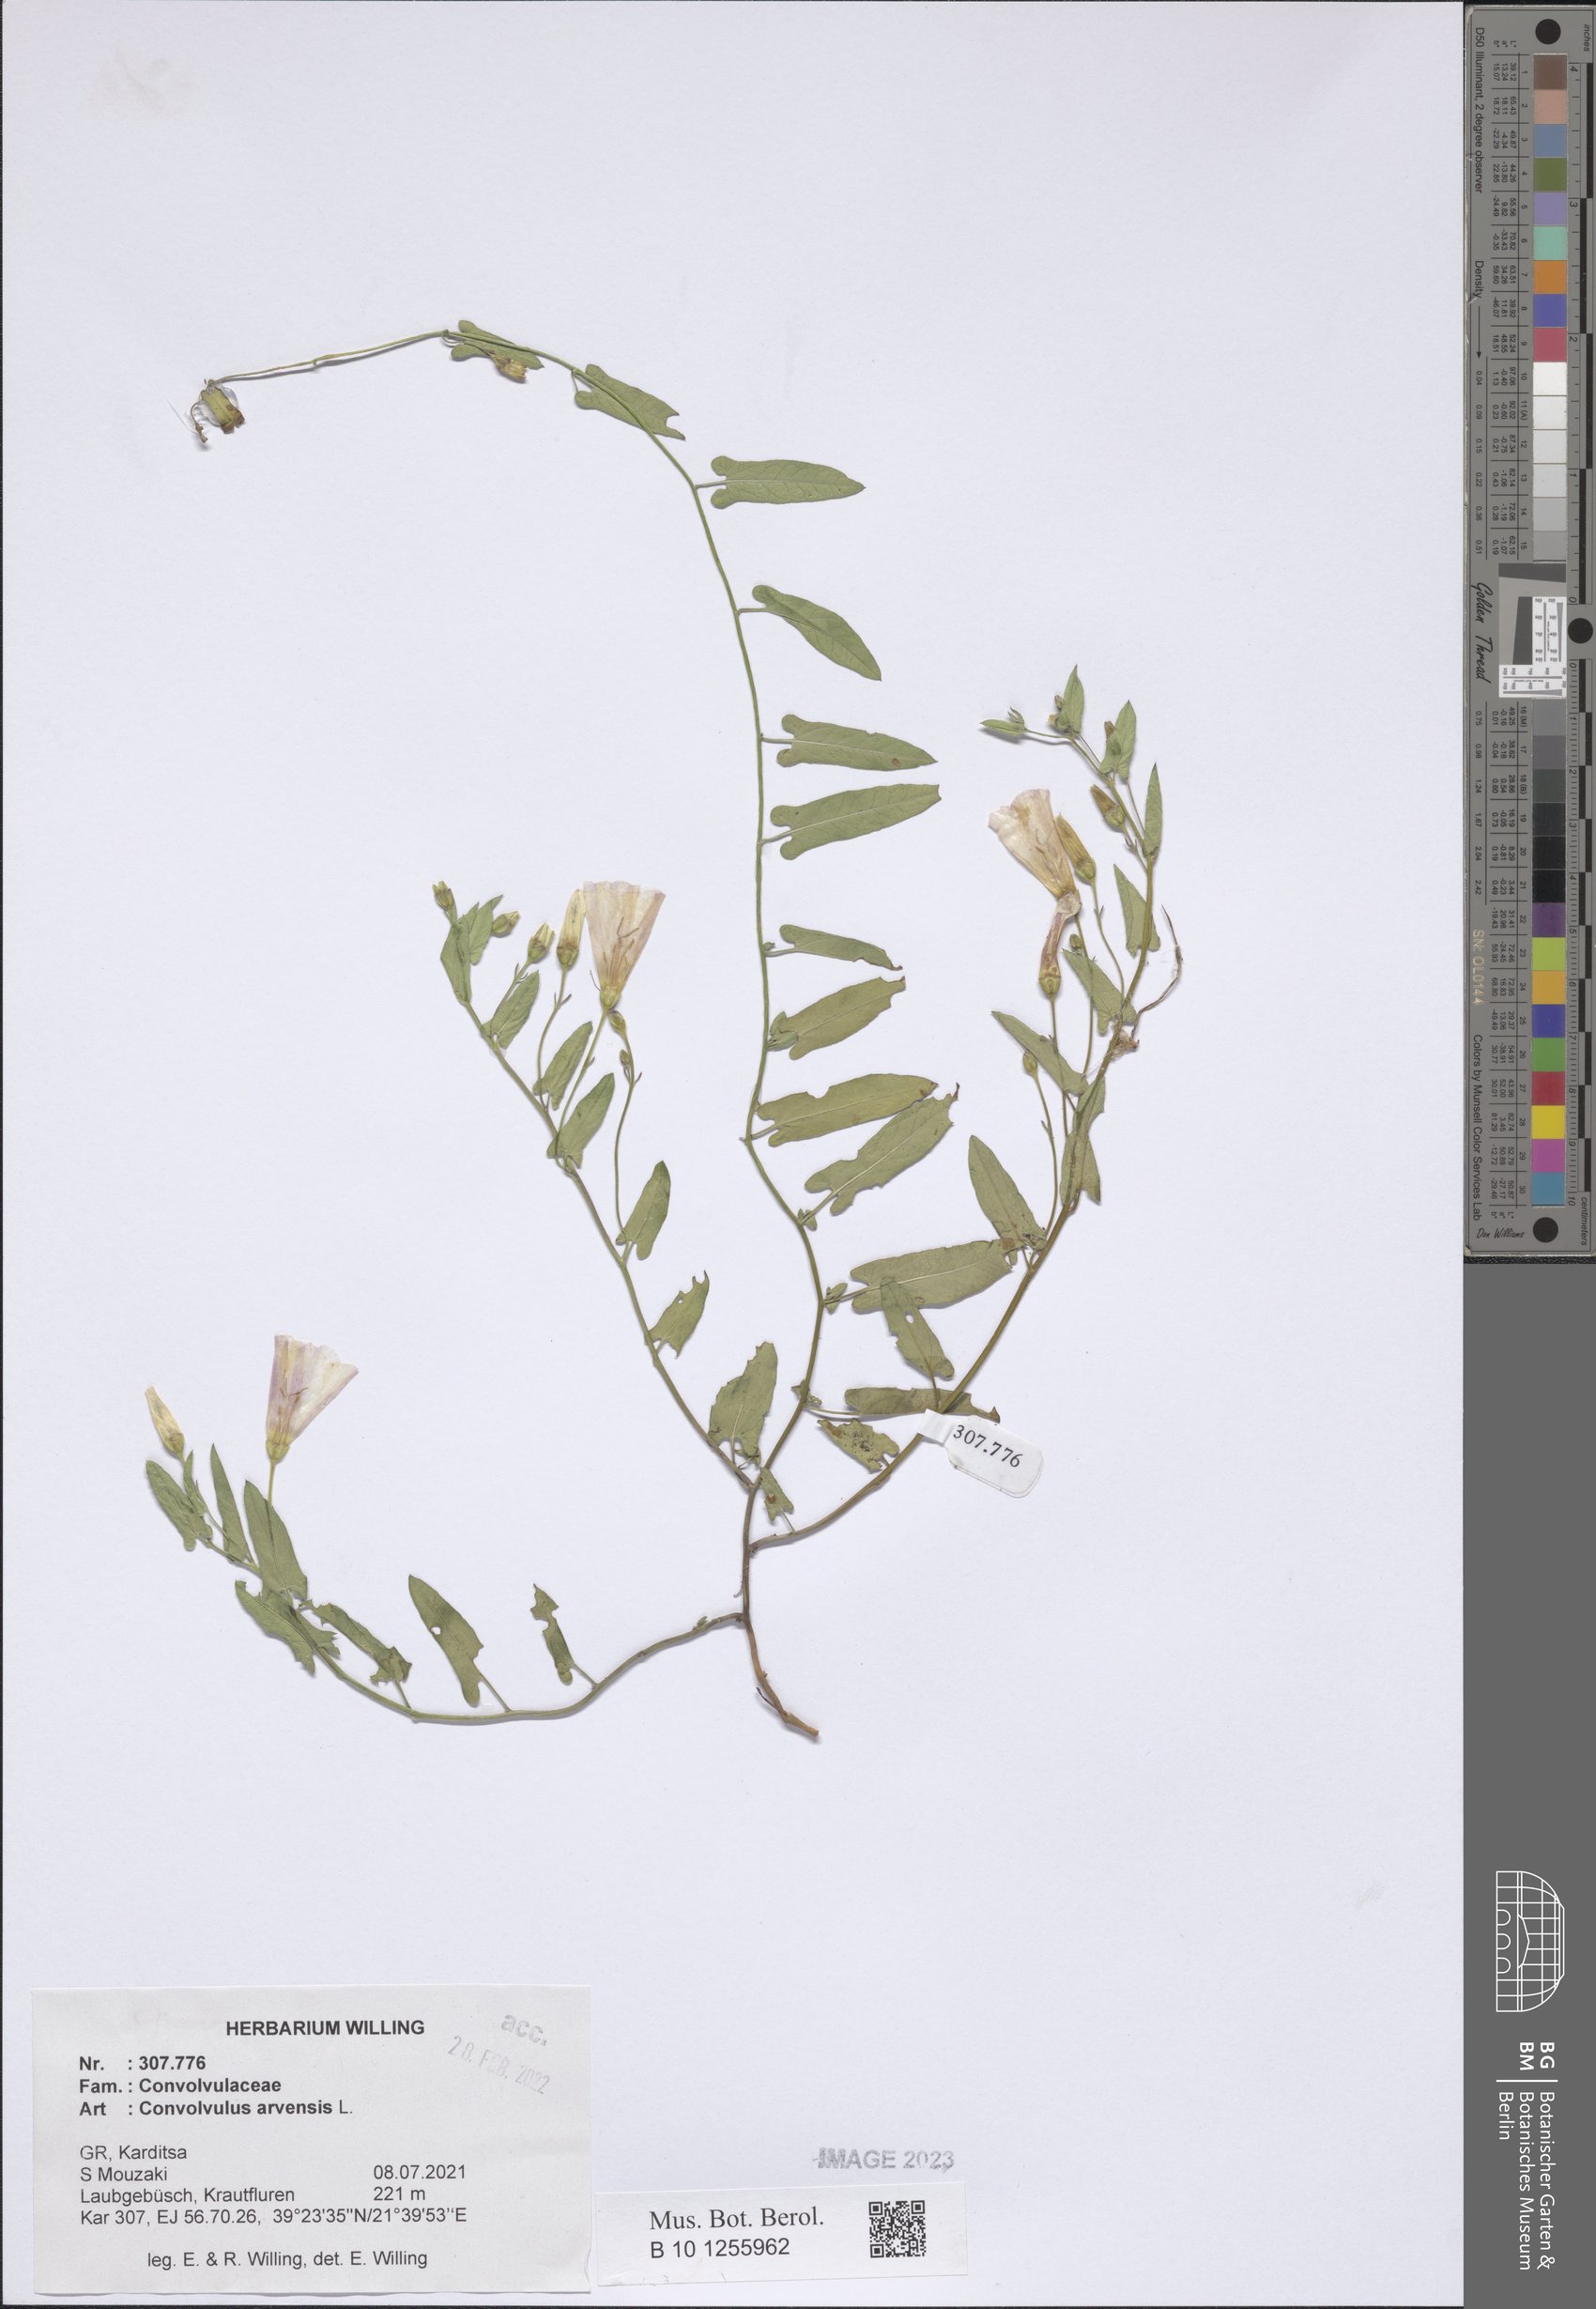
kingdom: Plantae
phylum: Tracheophyta
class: Magnoliopsida
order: Solanales
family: Convolvulaceae
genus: Convolvulus
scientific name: Convolvulus arvensis
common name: Field bindweed
